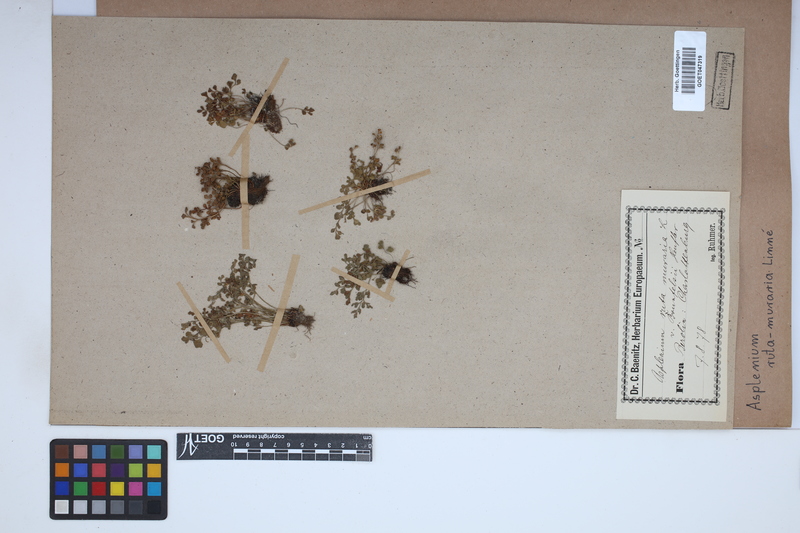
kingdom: Plantae
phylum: Tracheophyta
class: Polypodiopsida
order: Polypodiales
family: Aspleniaceae
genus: Asplenium
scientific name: Asplenium ruta-muraria
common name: Wall-rue
